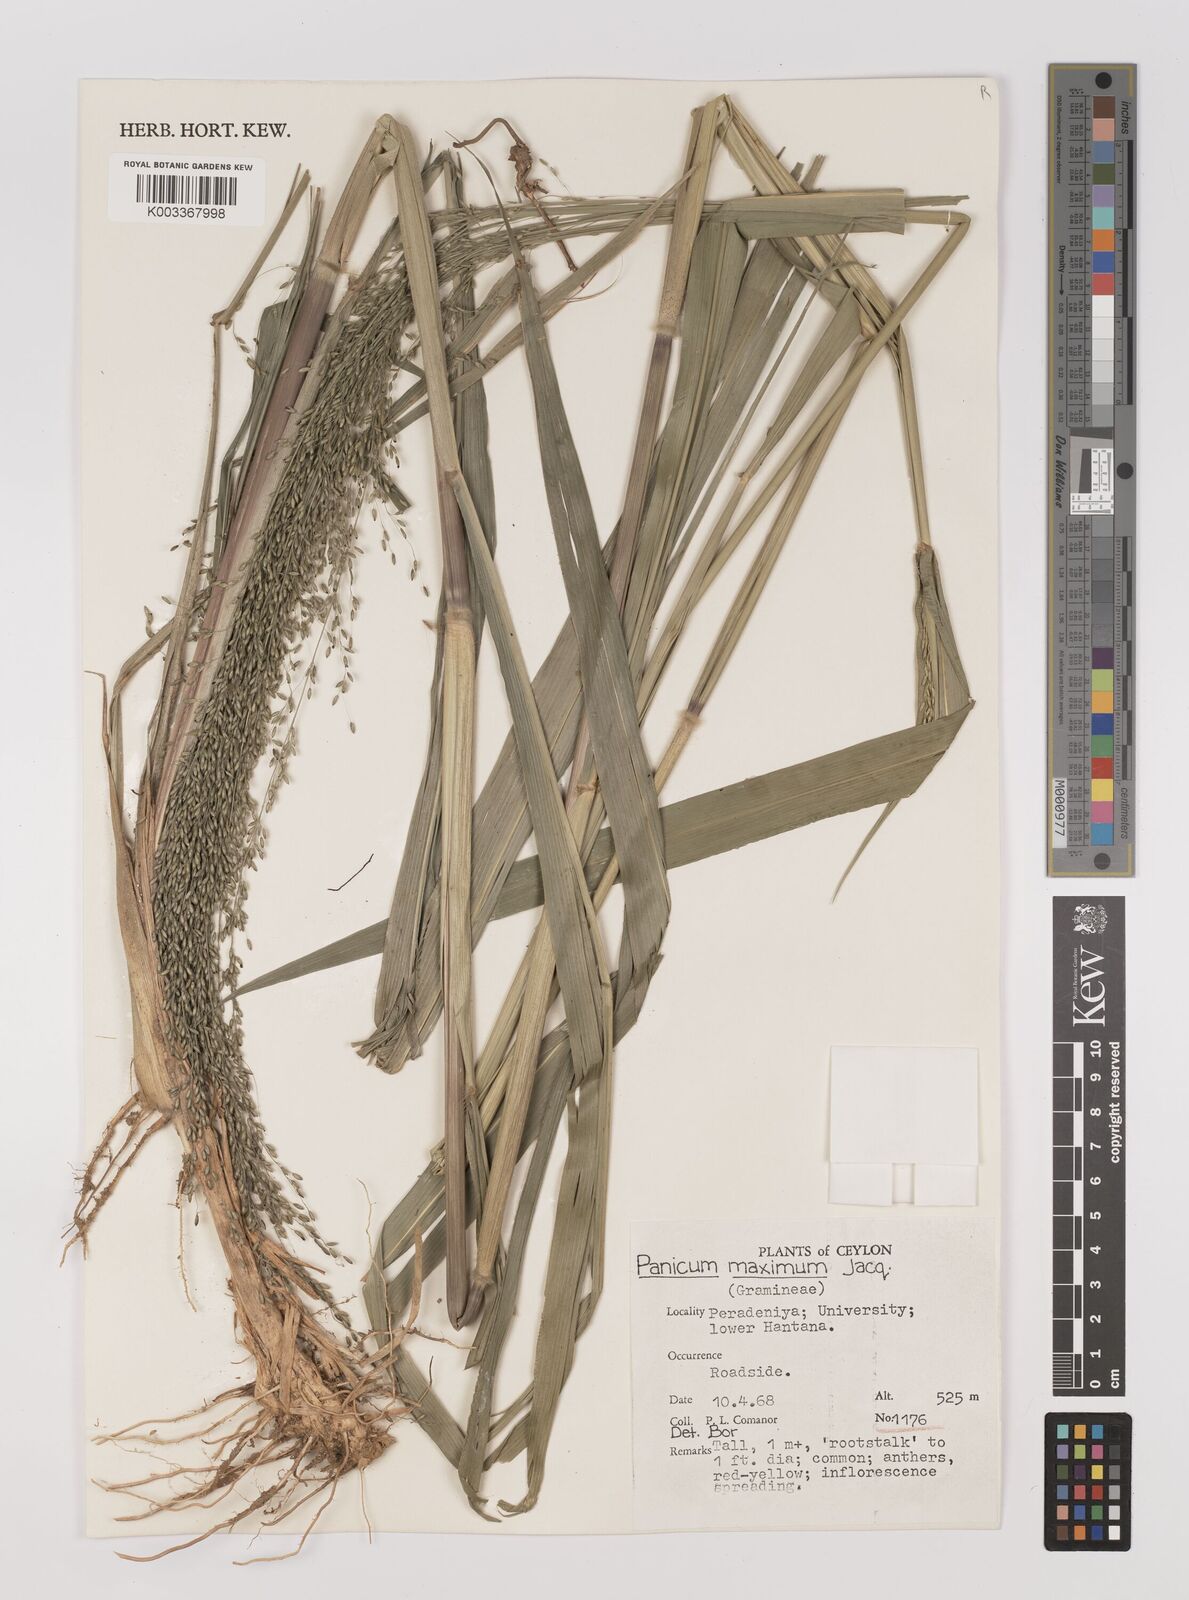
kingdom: Plantae
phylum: Tracheophyta
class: Liliopsida
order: Poales
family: Poaceae
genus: Megathyrsus
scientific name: Megathyrsus maximus
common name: Guineagrass
